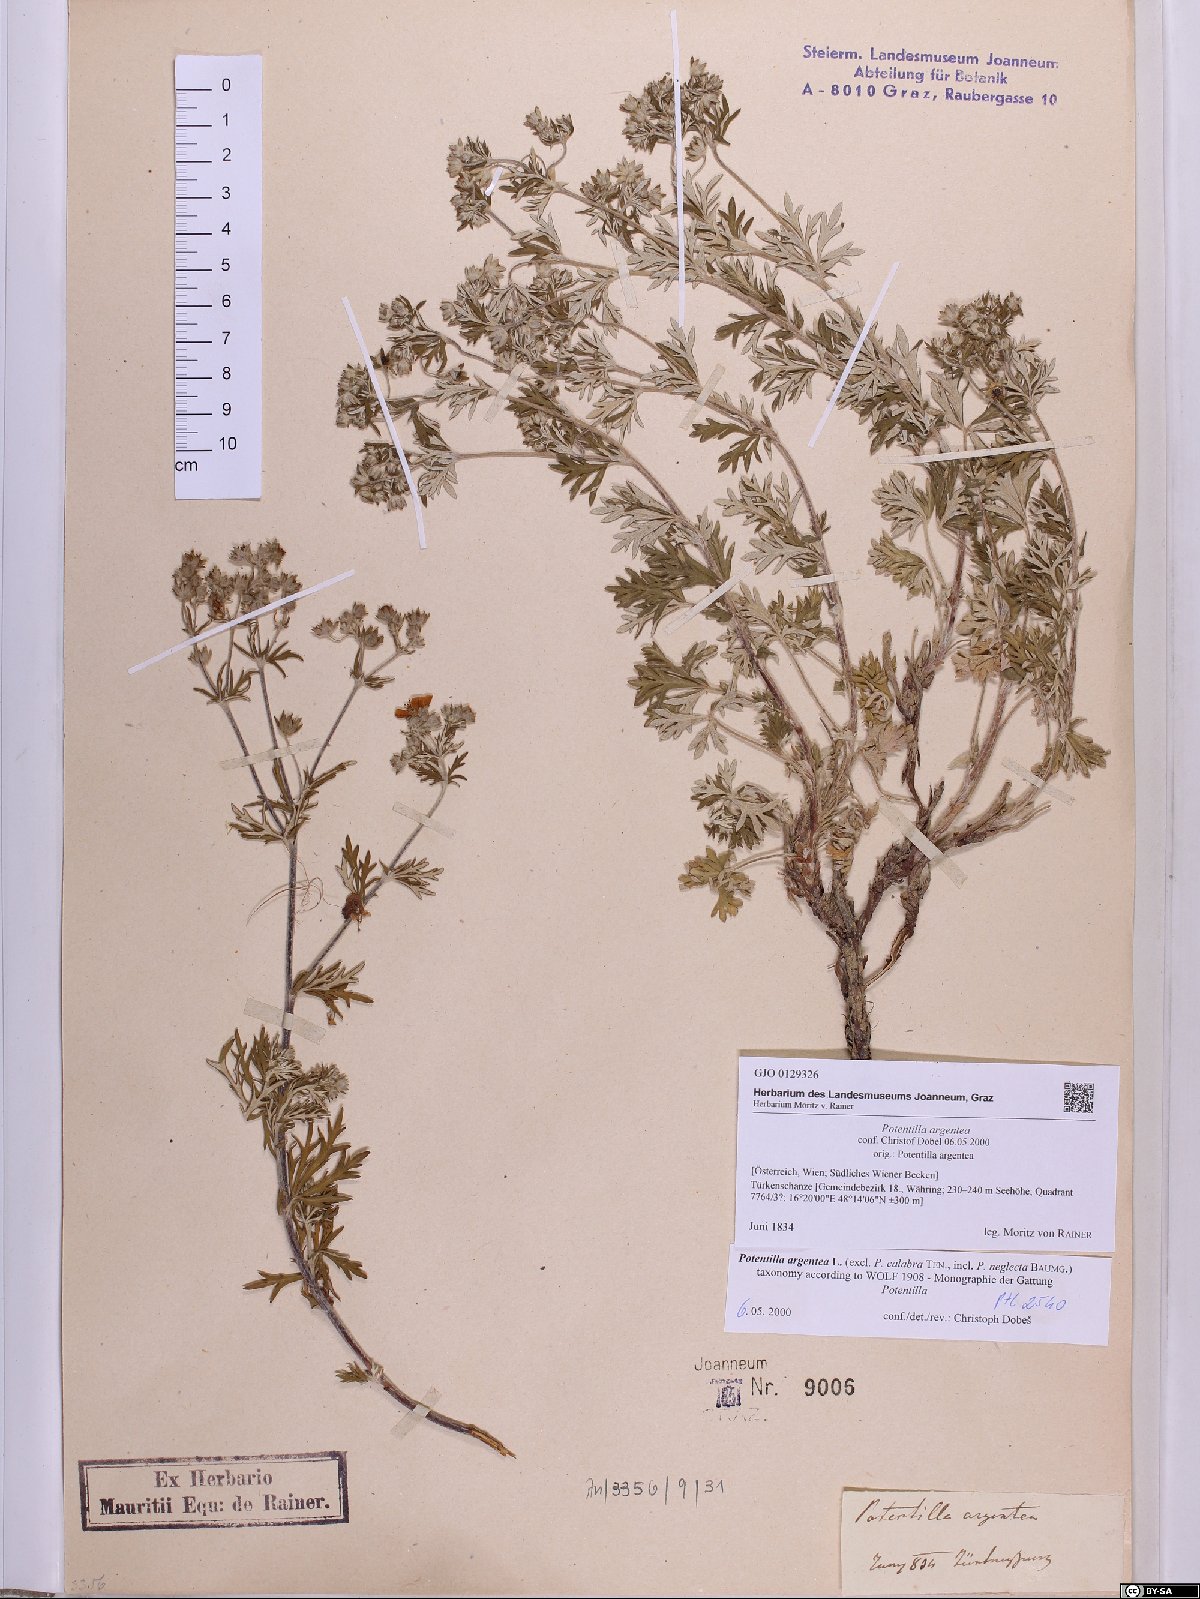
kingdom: Plantae
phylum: Tracheophyta
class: Magnoliopsida
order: Rosales
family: Rosaceae
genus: Potentilla
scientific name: Potentilla argentea
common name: Hoary cinquefoil
